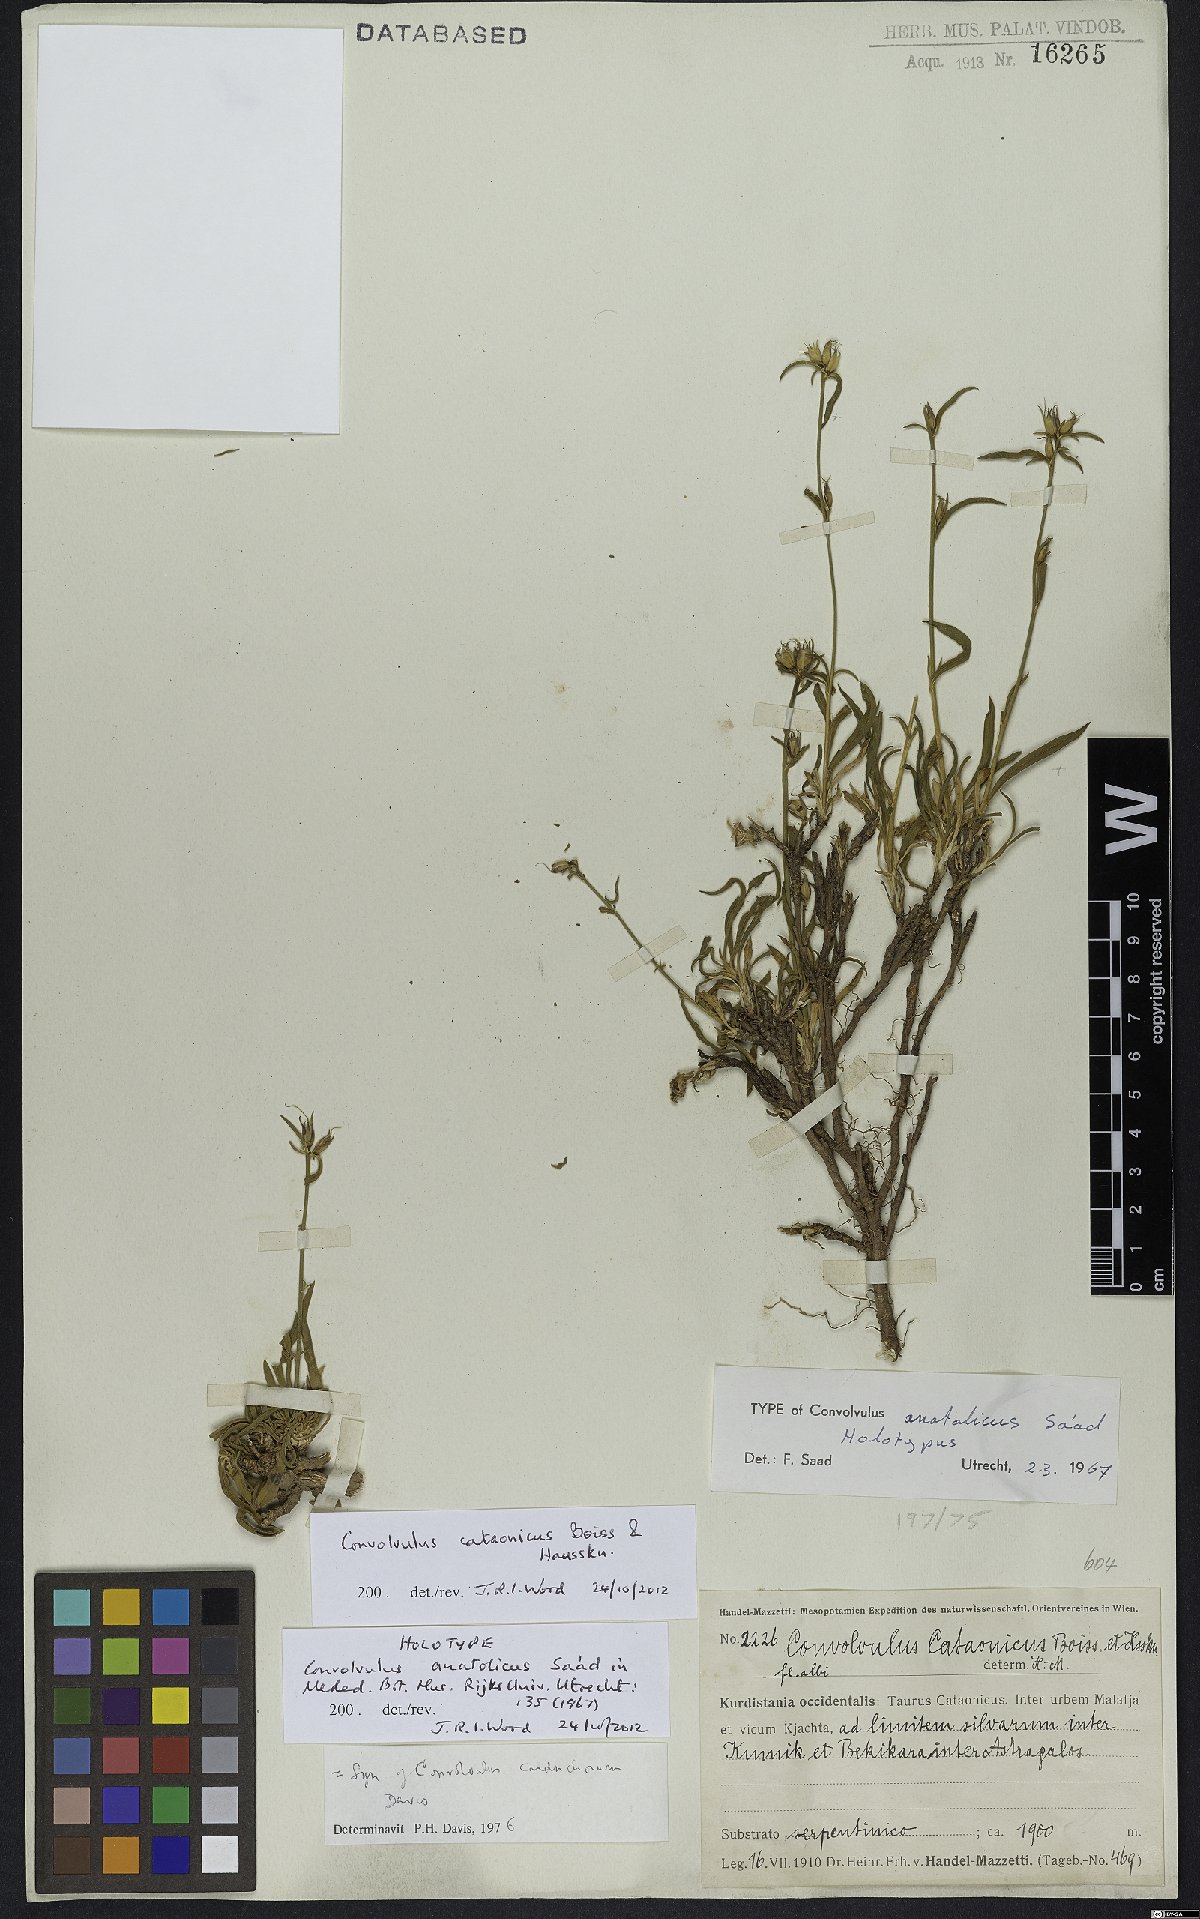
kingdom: Plantae
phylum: Tracheophyta
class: Magnoliopsida
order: Solanales
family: Convolvulaceae
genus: Convolvulus
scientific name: Convolvulus cataonicus
